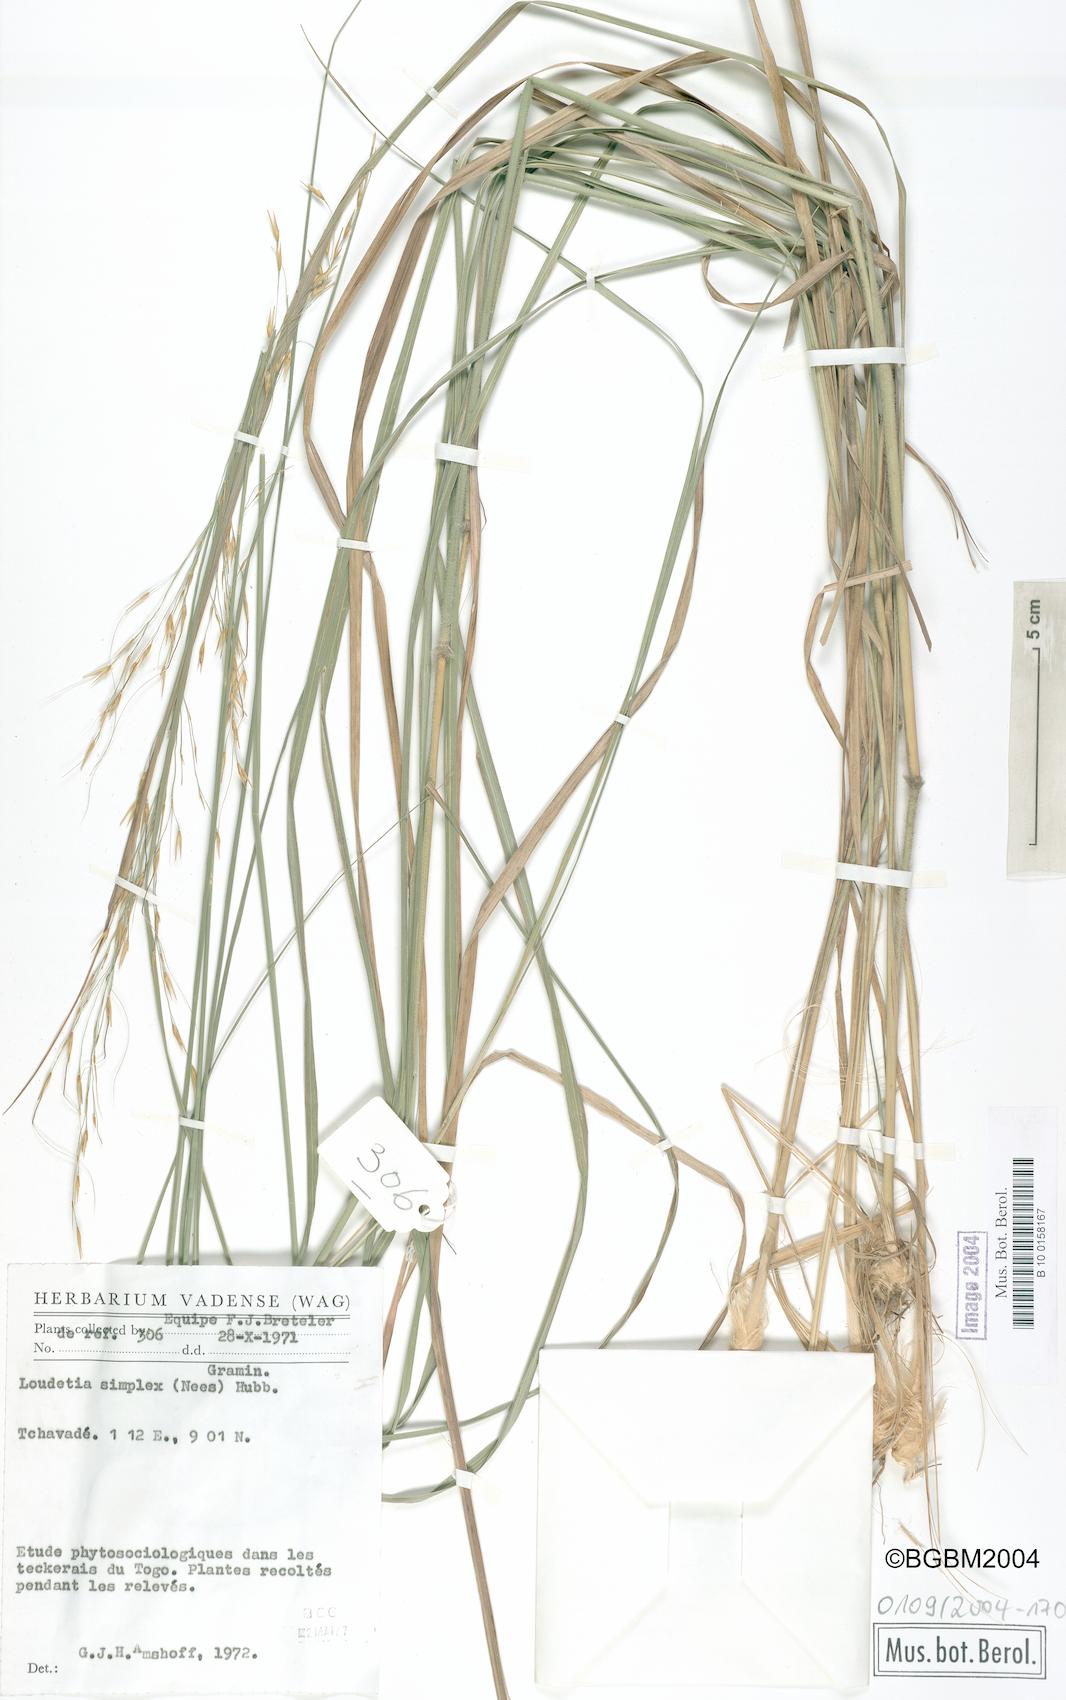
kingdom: Plantae
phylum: Tracheophyta
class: Liliopsida
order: Poales
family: Poaceae
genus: Loudetia
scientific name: Loudetia simplex
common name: Common russet grass
